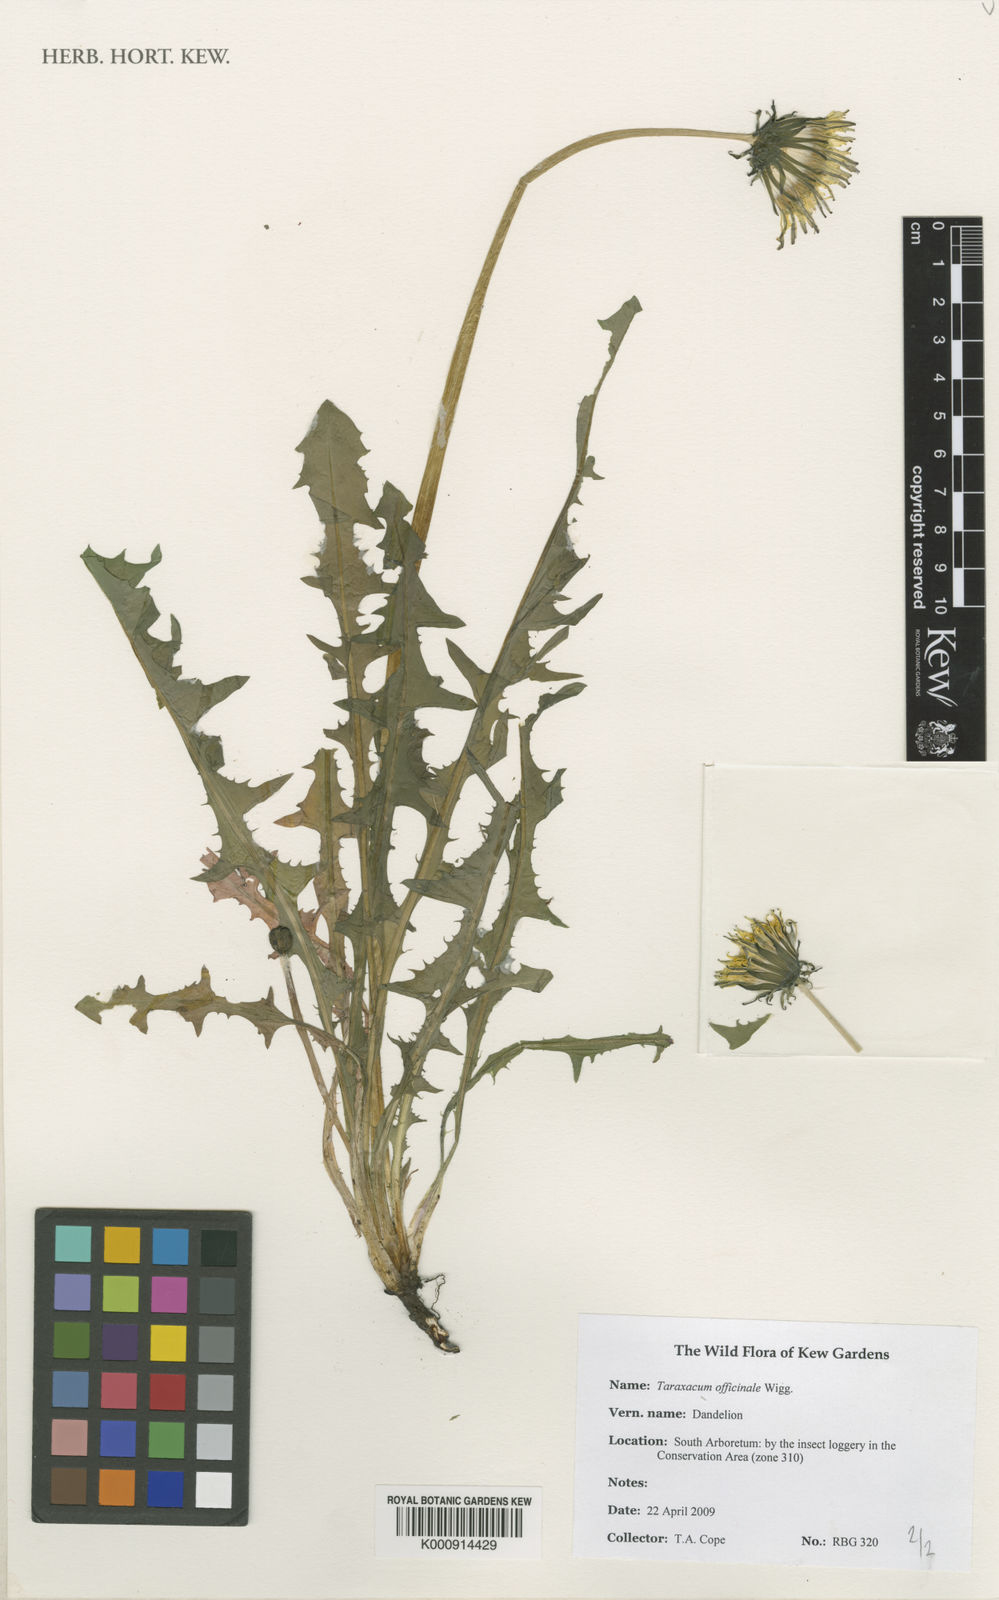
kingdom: Plantae
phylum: Tracheophyta
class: Magnoliopsida
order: Asterales
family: Asteraceae
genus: Taraxacum
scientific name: Taraxacum officinale
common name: Common dandelion
